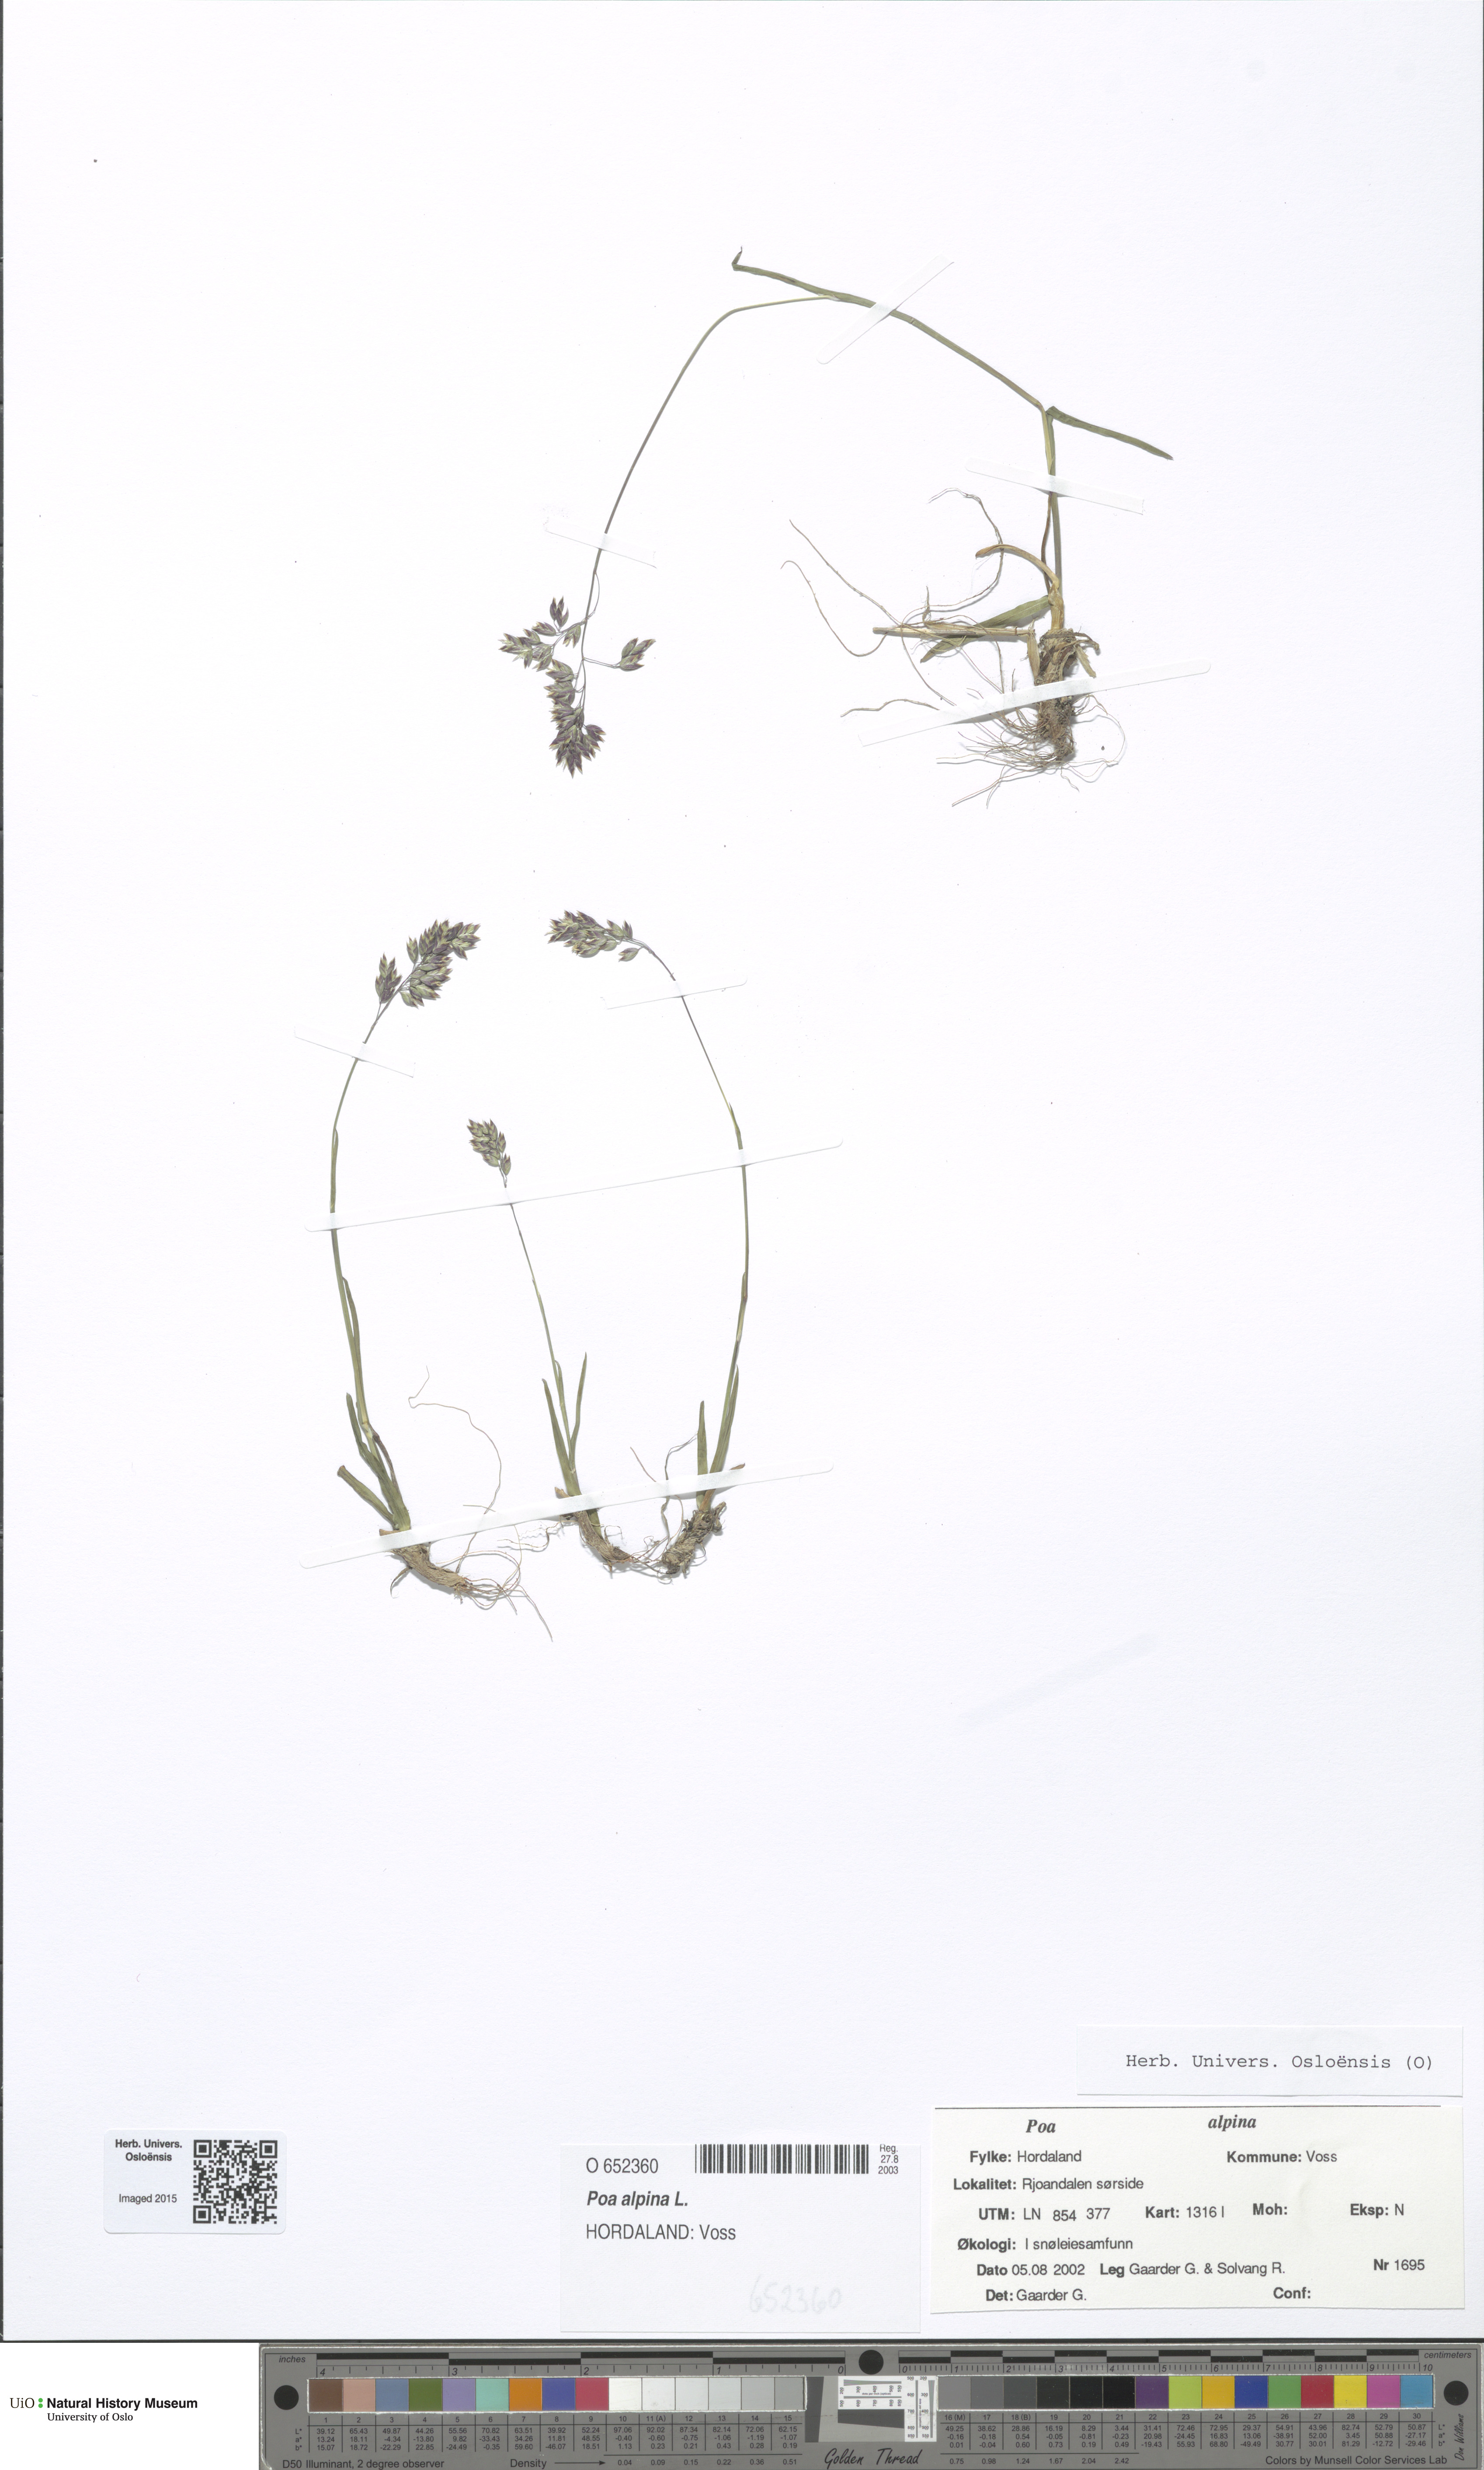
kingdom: Plantae
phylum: Tracheophyta
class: Liliopsida
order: Poales
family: Poaceae
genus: Poa
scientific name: Poa alpina
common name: Alpine bluegrass
